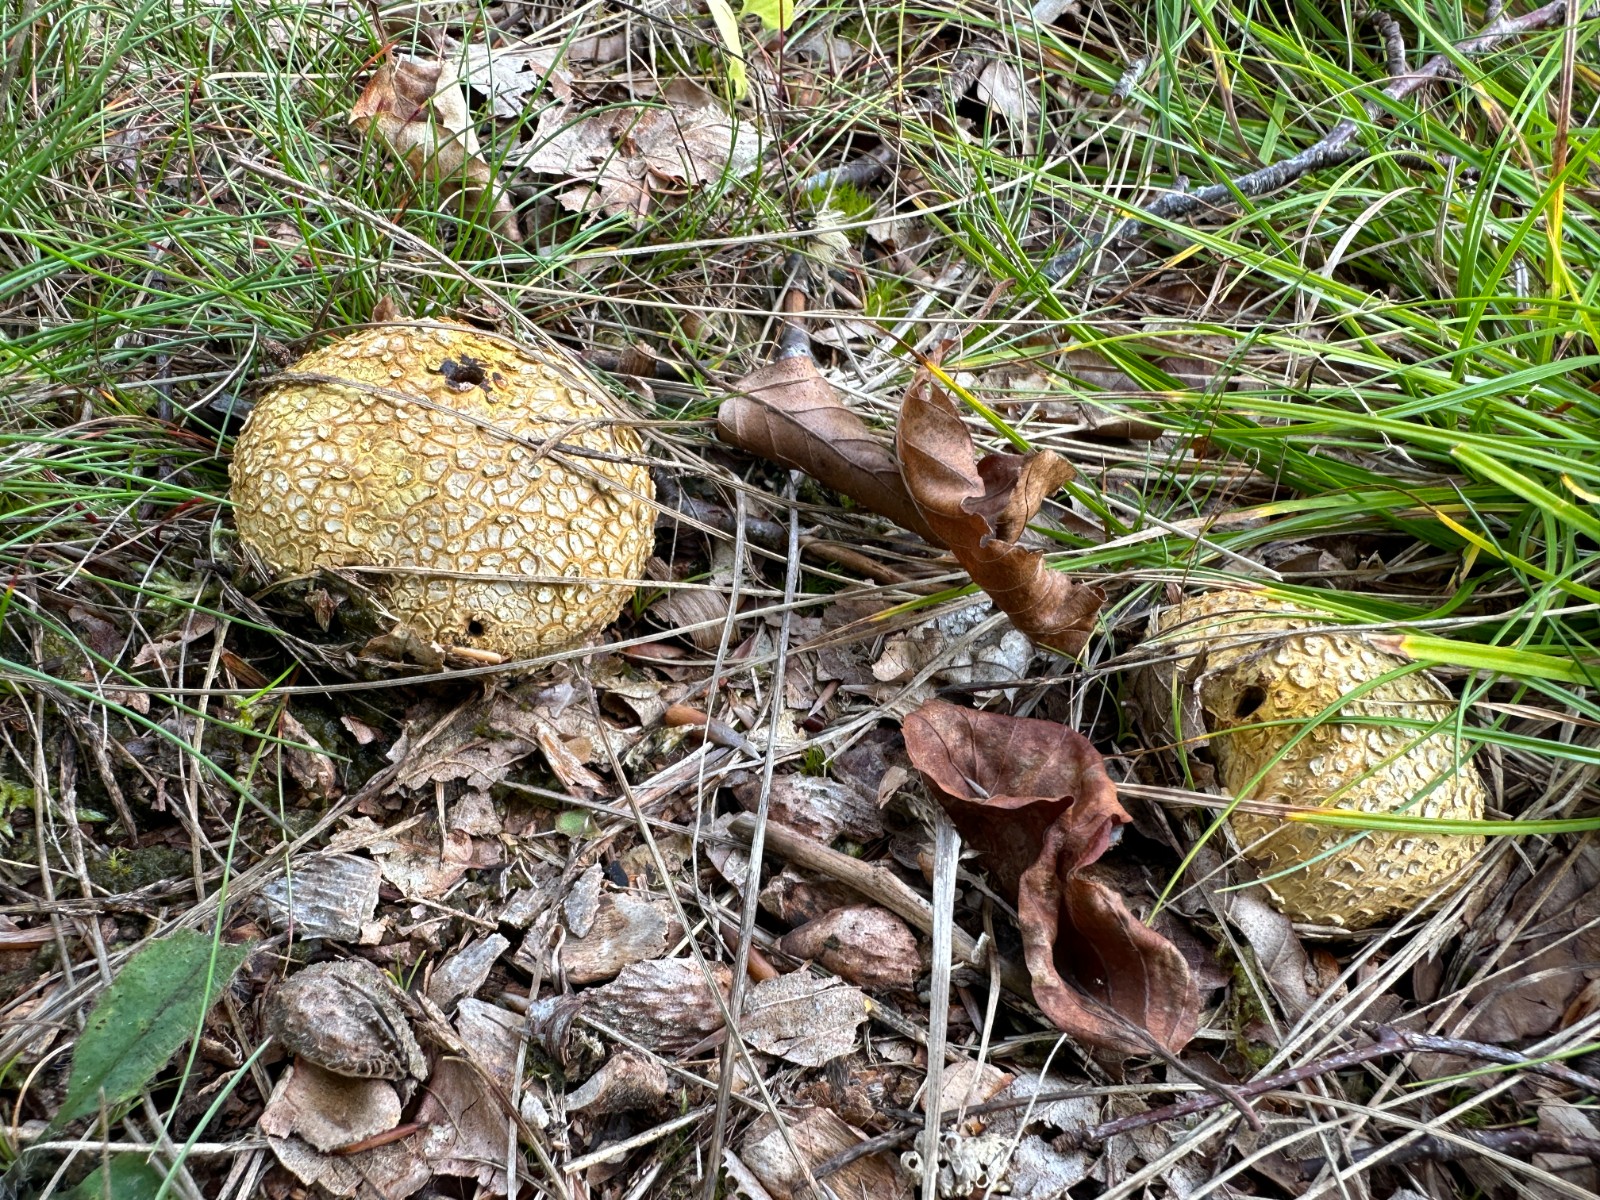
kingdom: Fungi
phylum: Basidiomycota
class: Agaricomycetes
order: Boletales
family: Sclerodermataceae
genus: Scleroderma
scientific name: Scleroderma citrinum
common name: almindelig bruskbold
